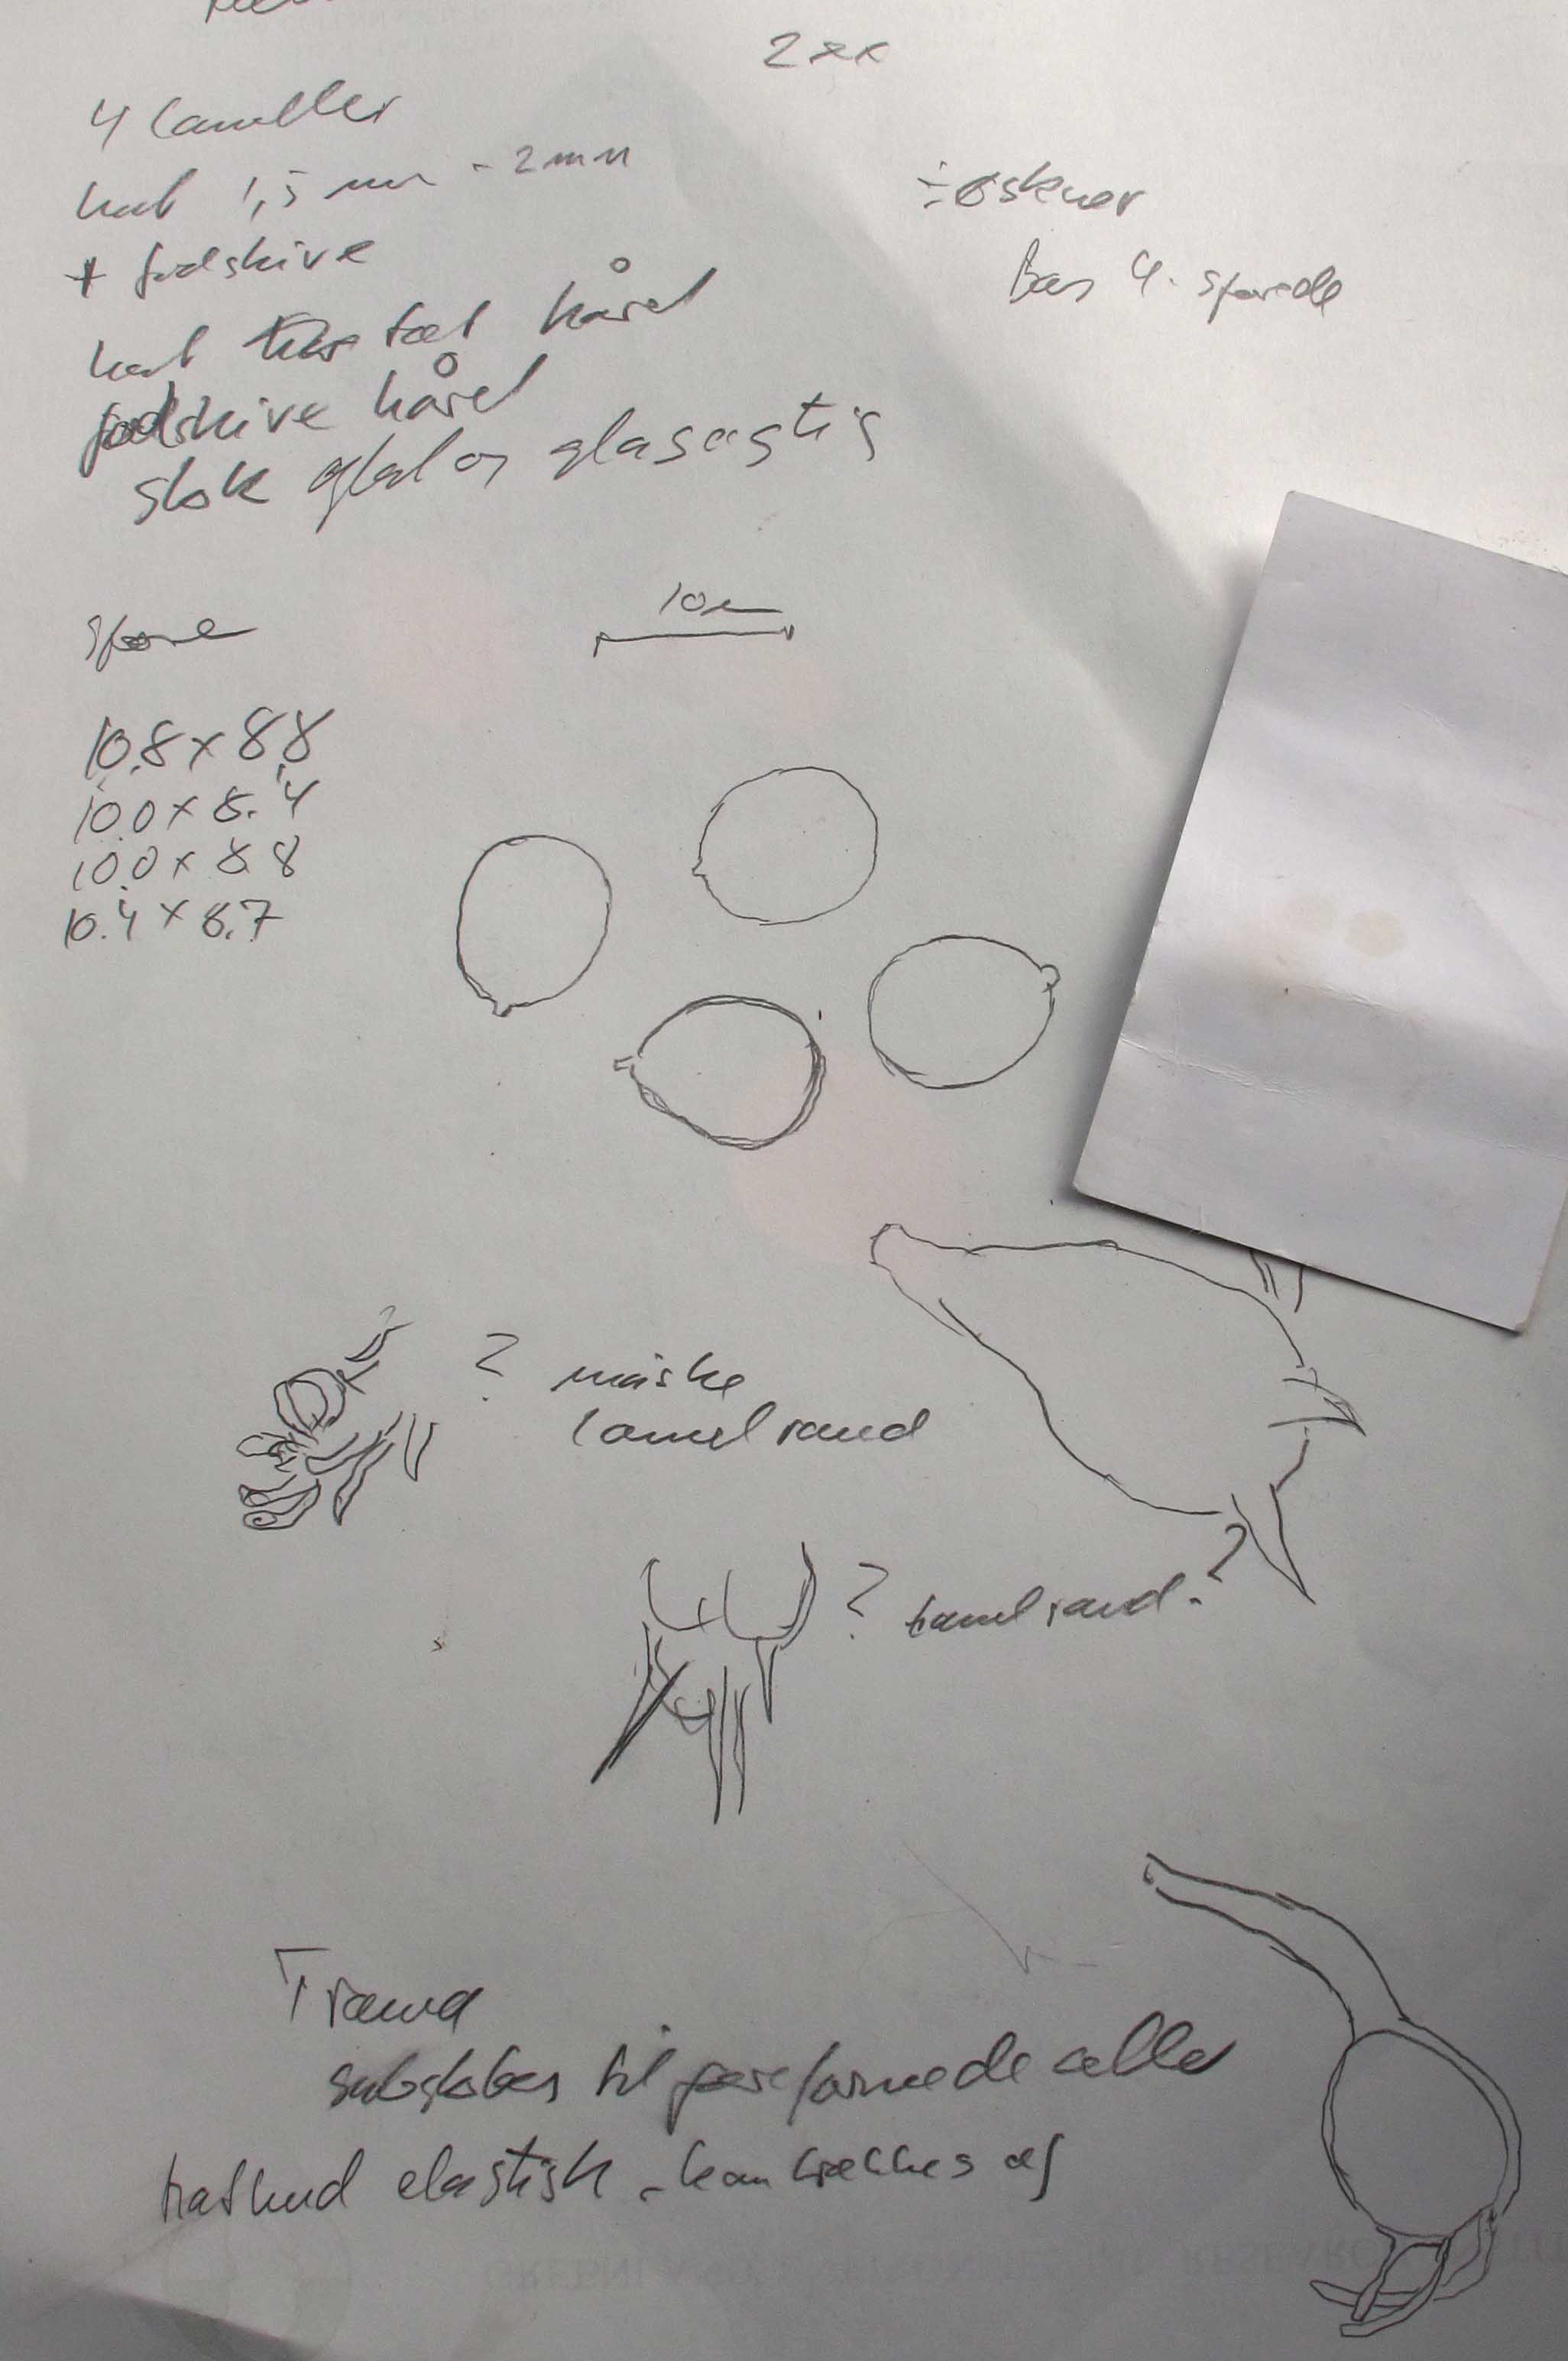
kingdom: Fungi
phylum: Basidiomycota
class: Agaricomycetes
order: Agaricales
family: Mycenaceae
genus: Mycena
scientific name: Mycena clavularis
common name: dunskivet huesvamp
